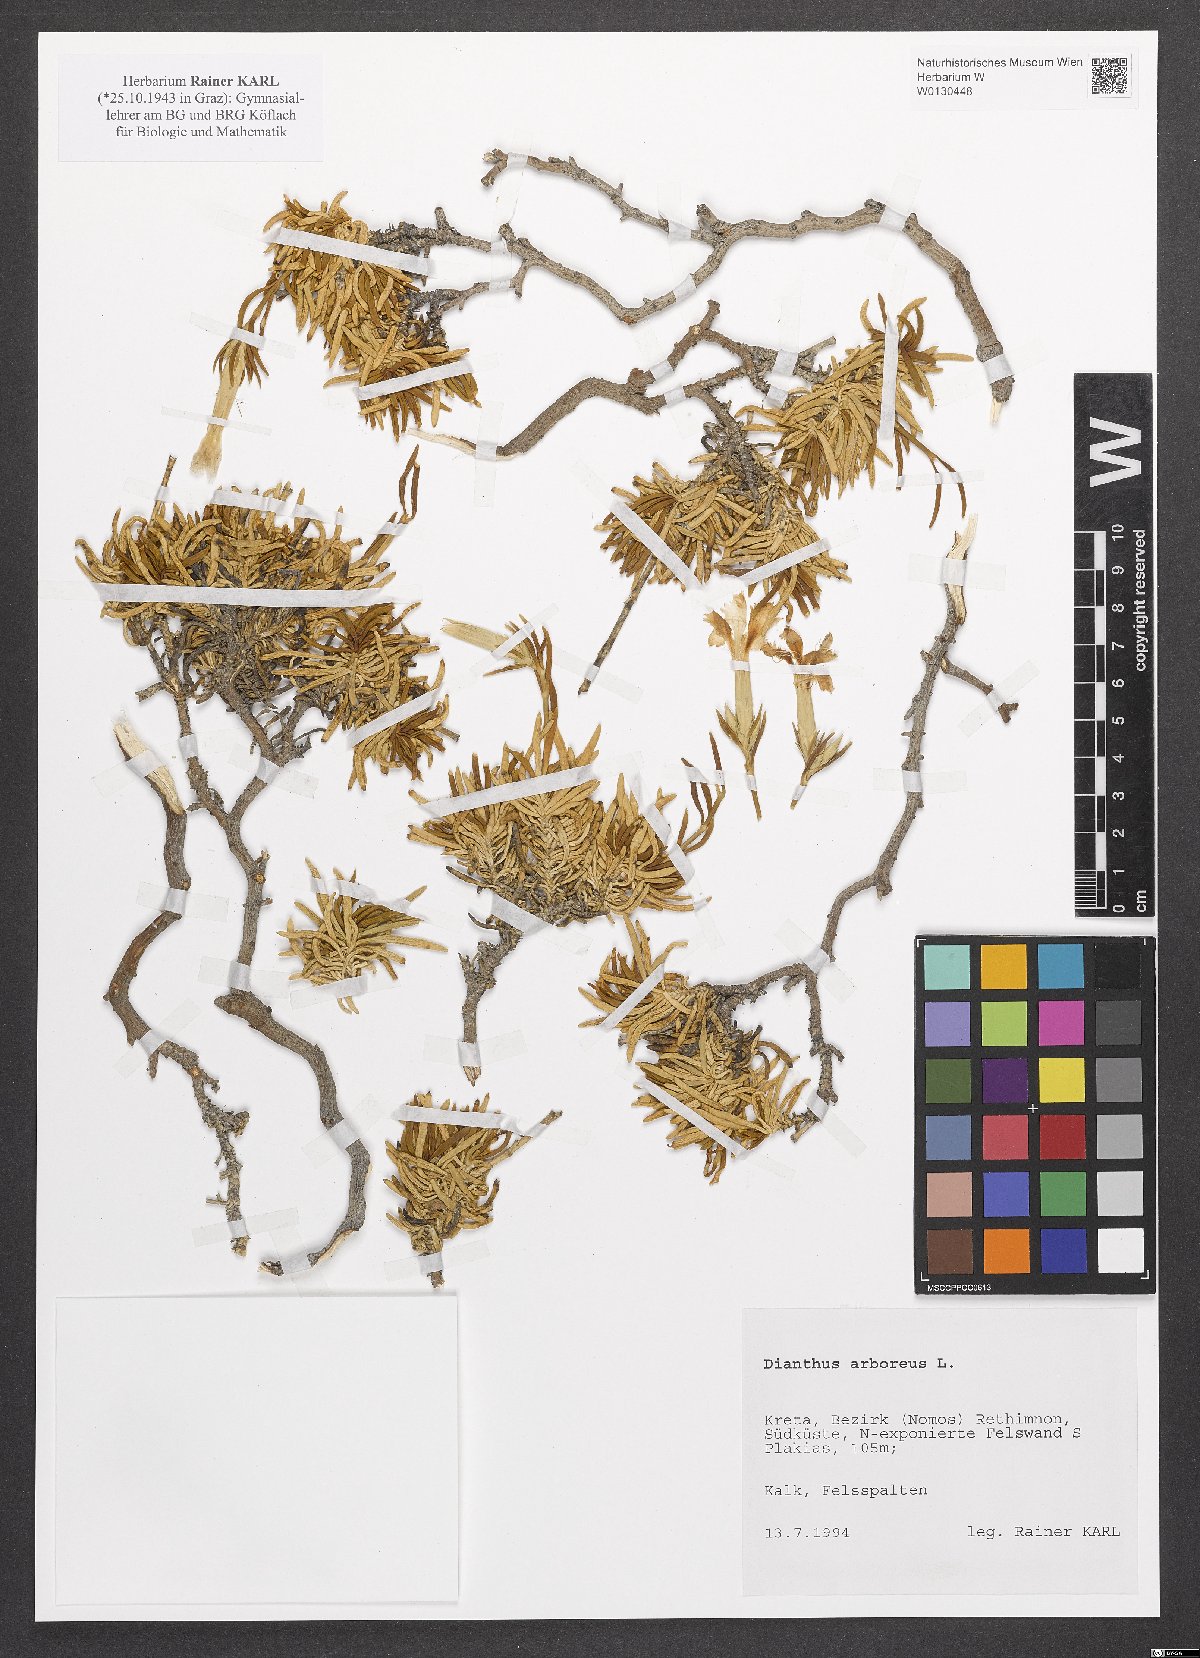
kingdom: Plantae
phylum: Tracheophyta
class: Magnoliopsida
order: Caryophyllales
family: Caryophyllaceae
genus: Dianthus
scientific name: Dianthus juniperinus
